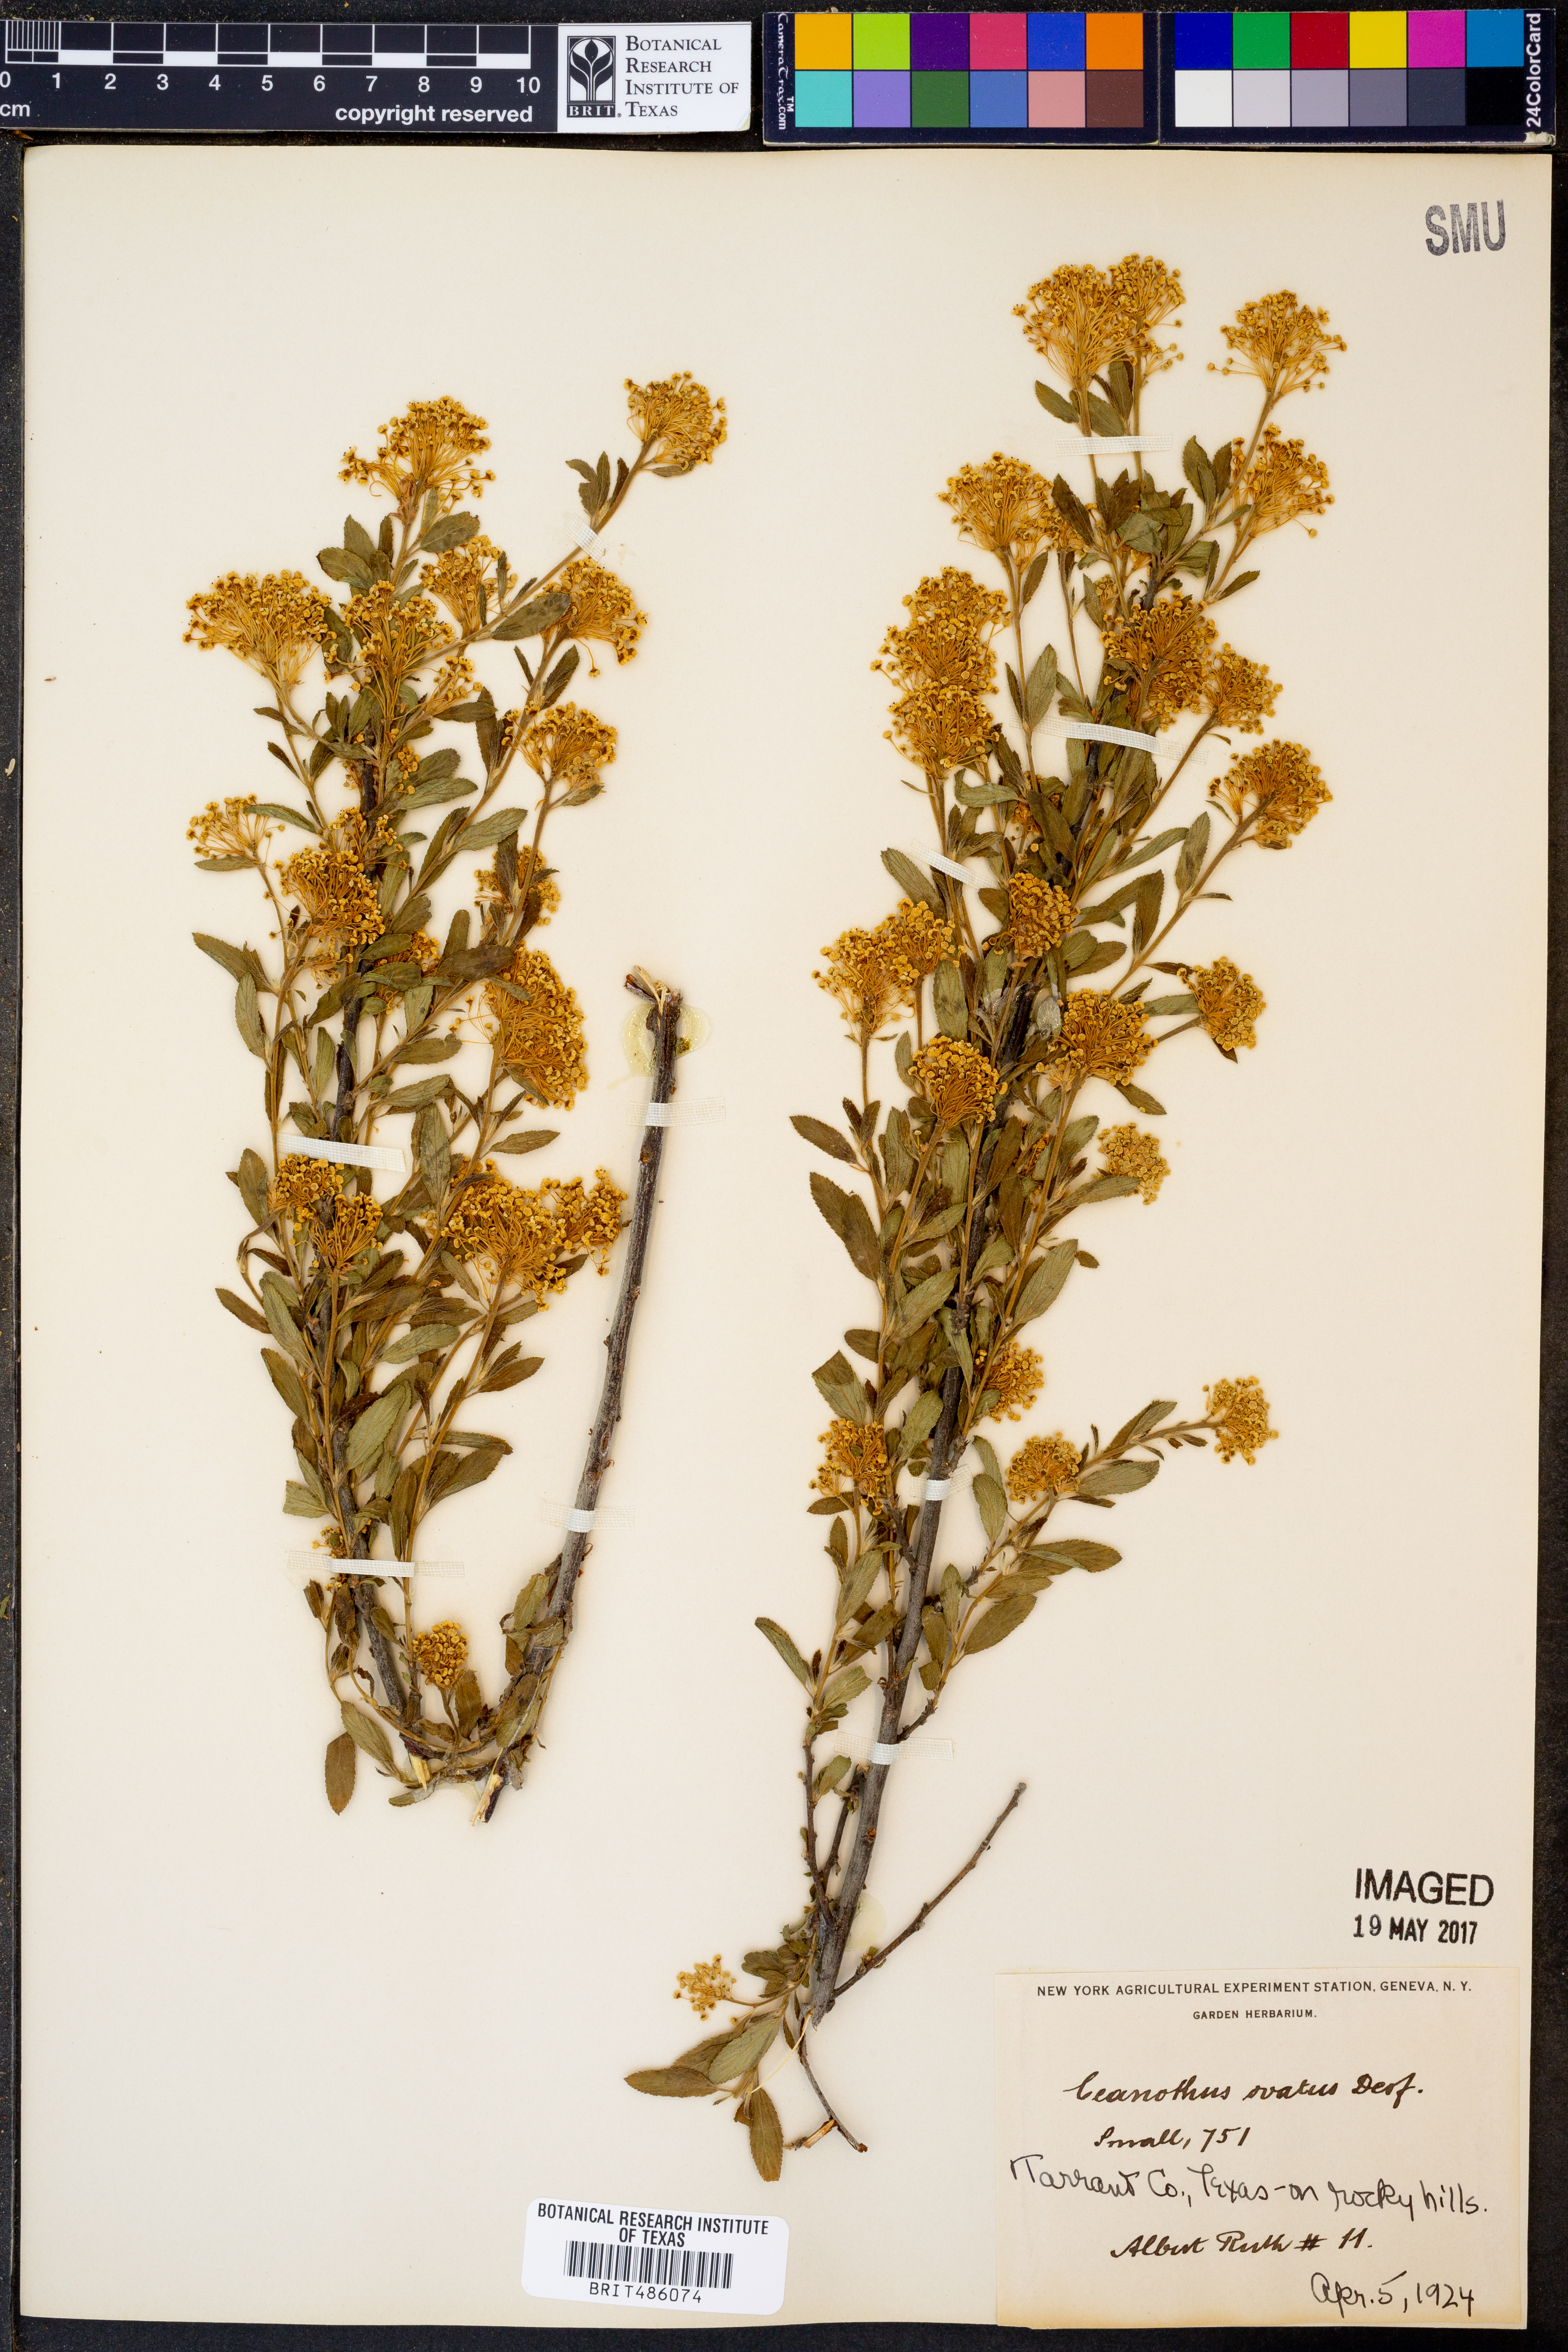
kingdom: Plantae
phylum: Tracheophyta
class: Magnoliopsida
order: Rosales
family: Rhamnaceae
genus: Ceanothus
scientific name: Ceanothus herbaceus
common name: Inland ceanothus
